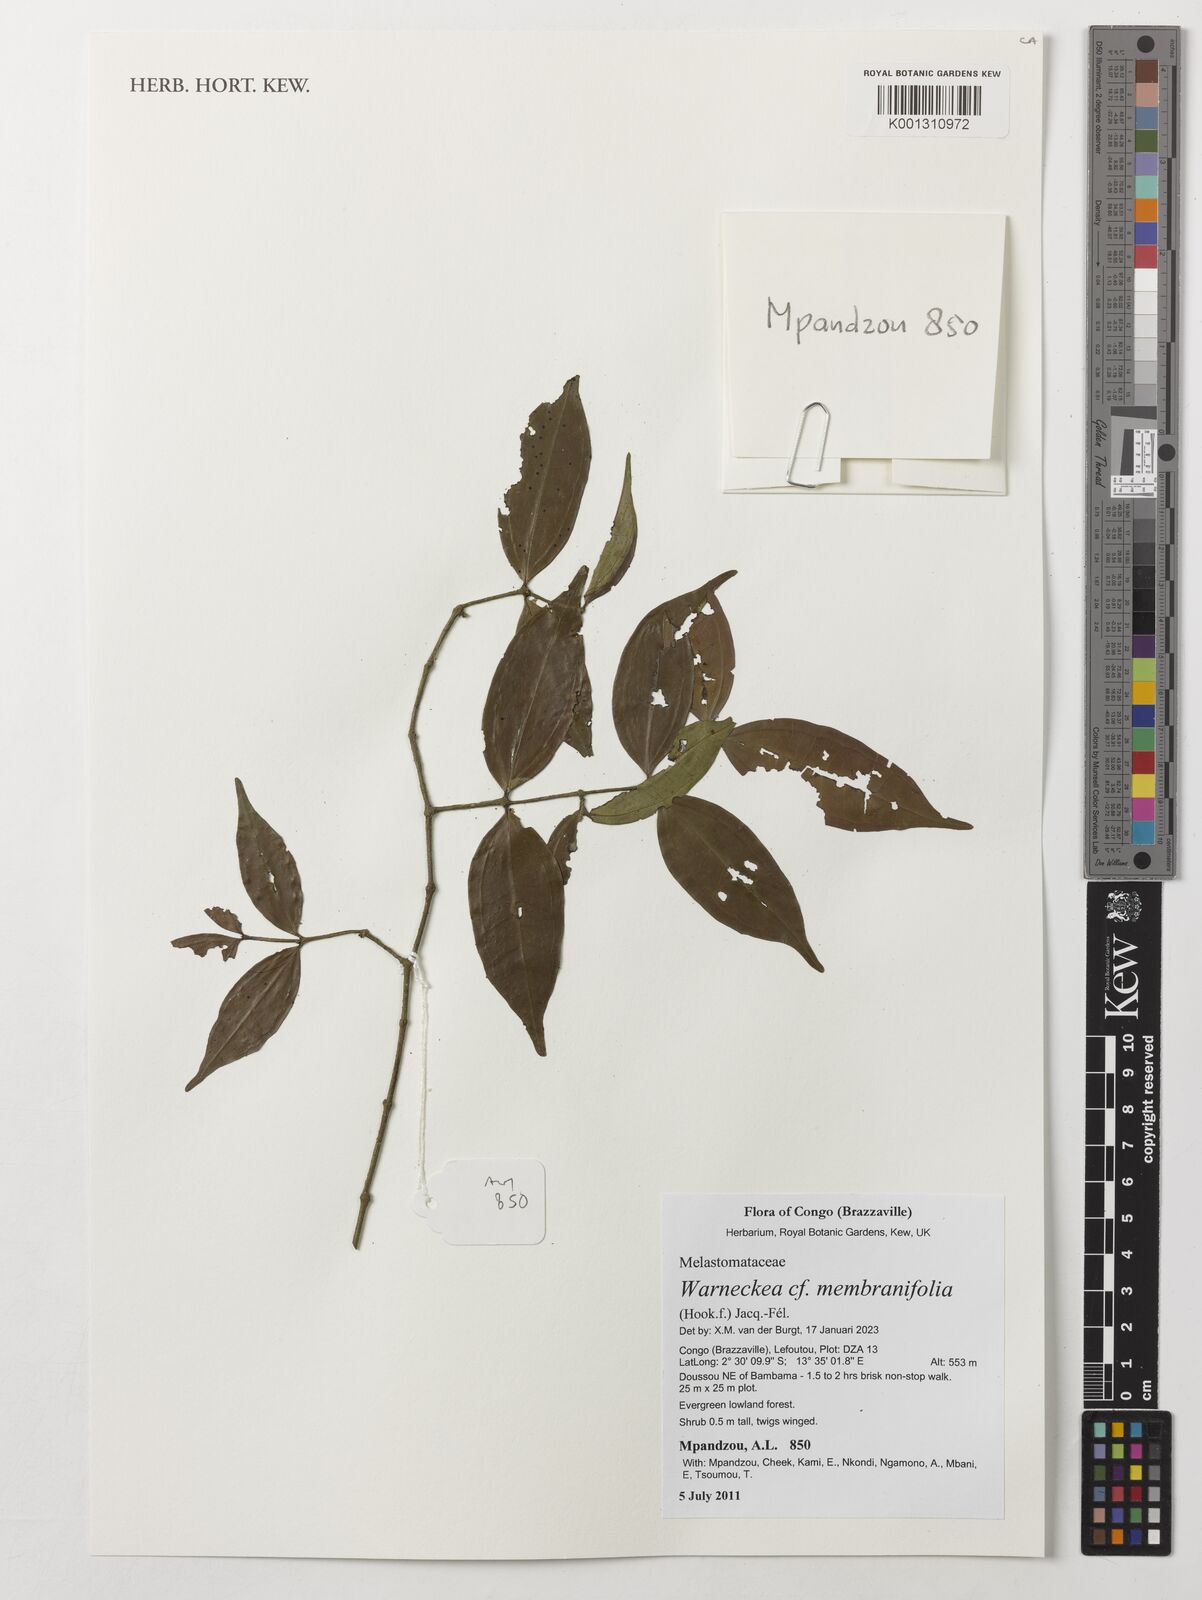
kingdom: Plantae
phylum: Tracheophyta
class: Magnoliopsida
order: Myrtales
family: Melastomataceae
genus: Warneckea
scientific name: Warneckea membranifolia
